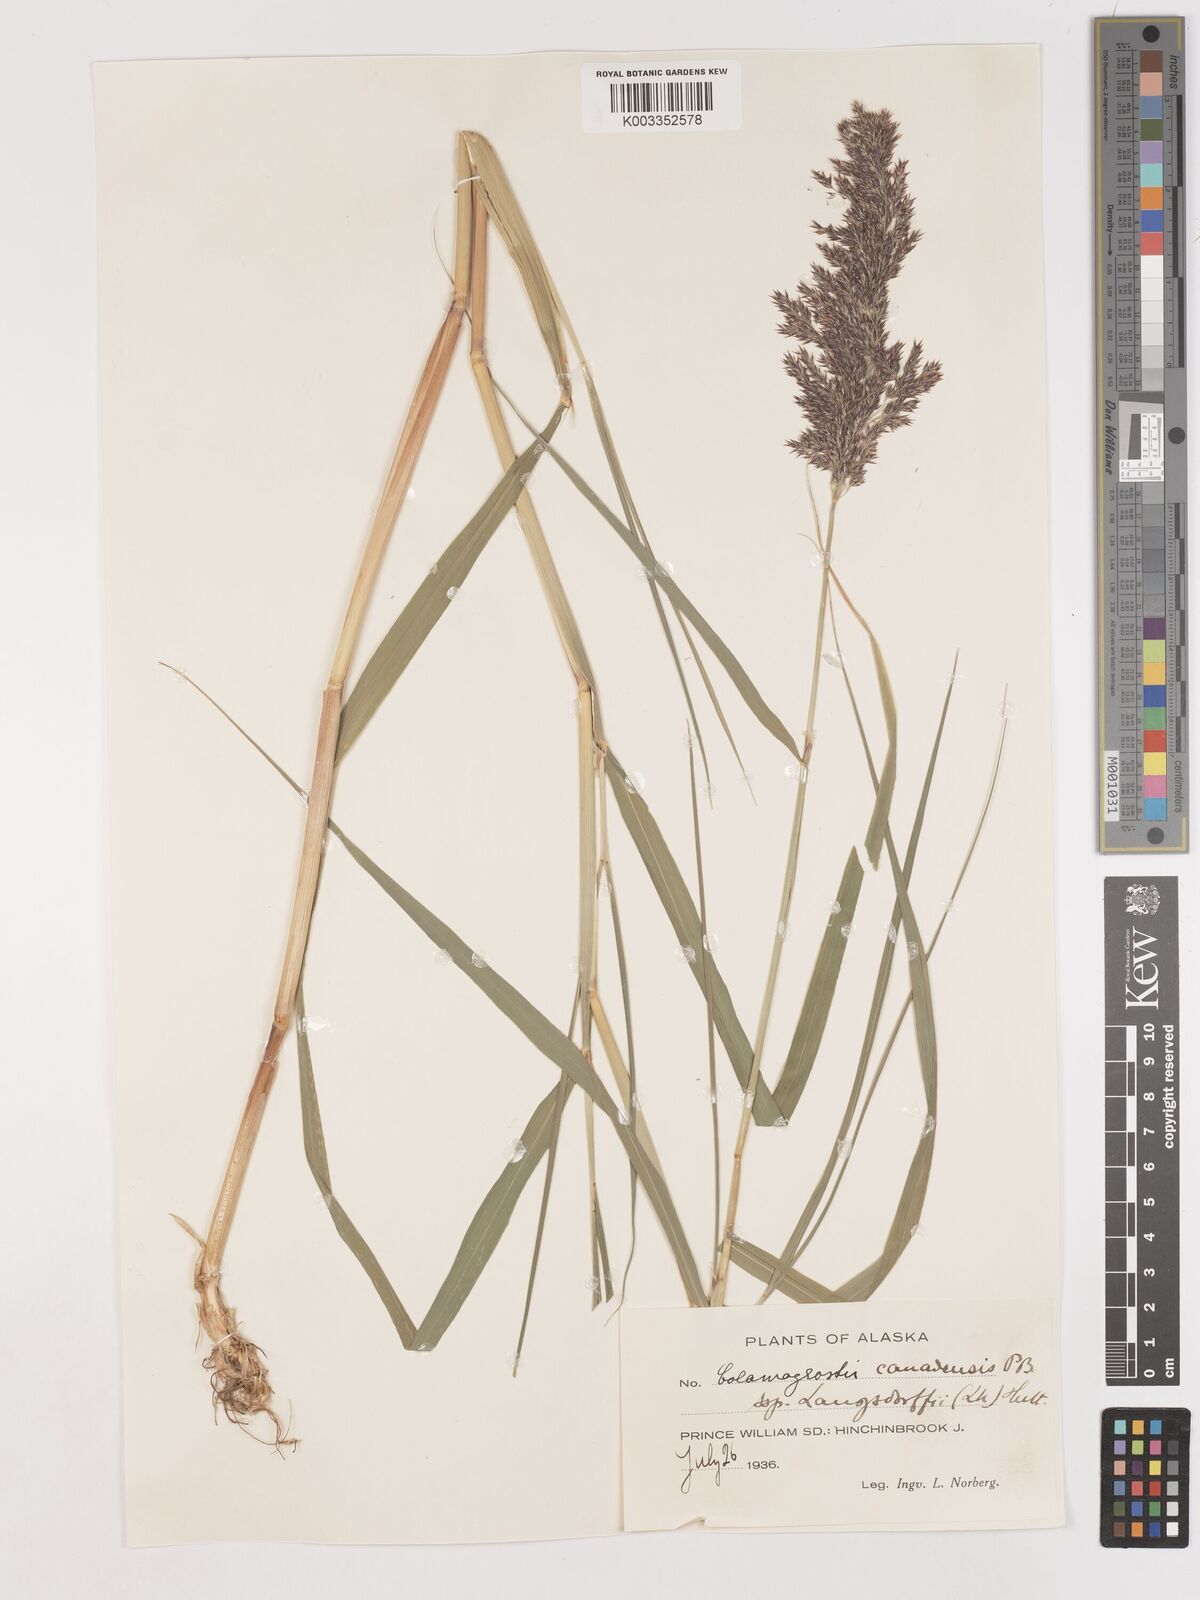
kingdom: Plantae
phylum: Tracheophyta
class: Liliopsida
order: Poales
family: Poaceae
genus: Calamagrostis
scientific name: Calamagrostis canadensis
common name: Canada bluejoint
